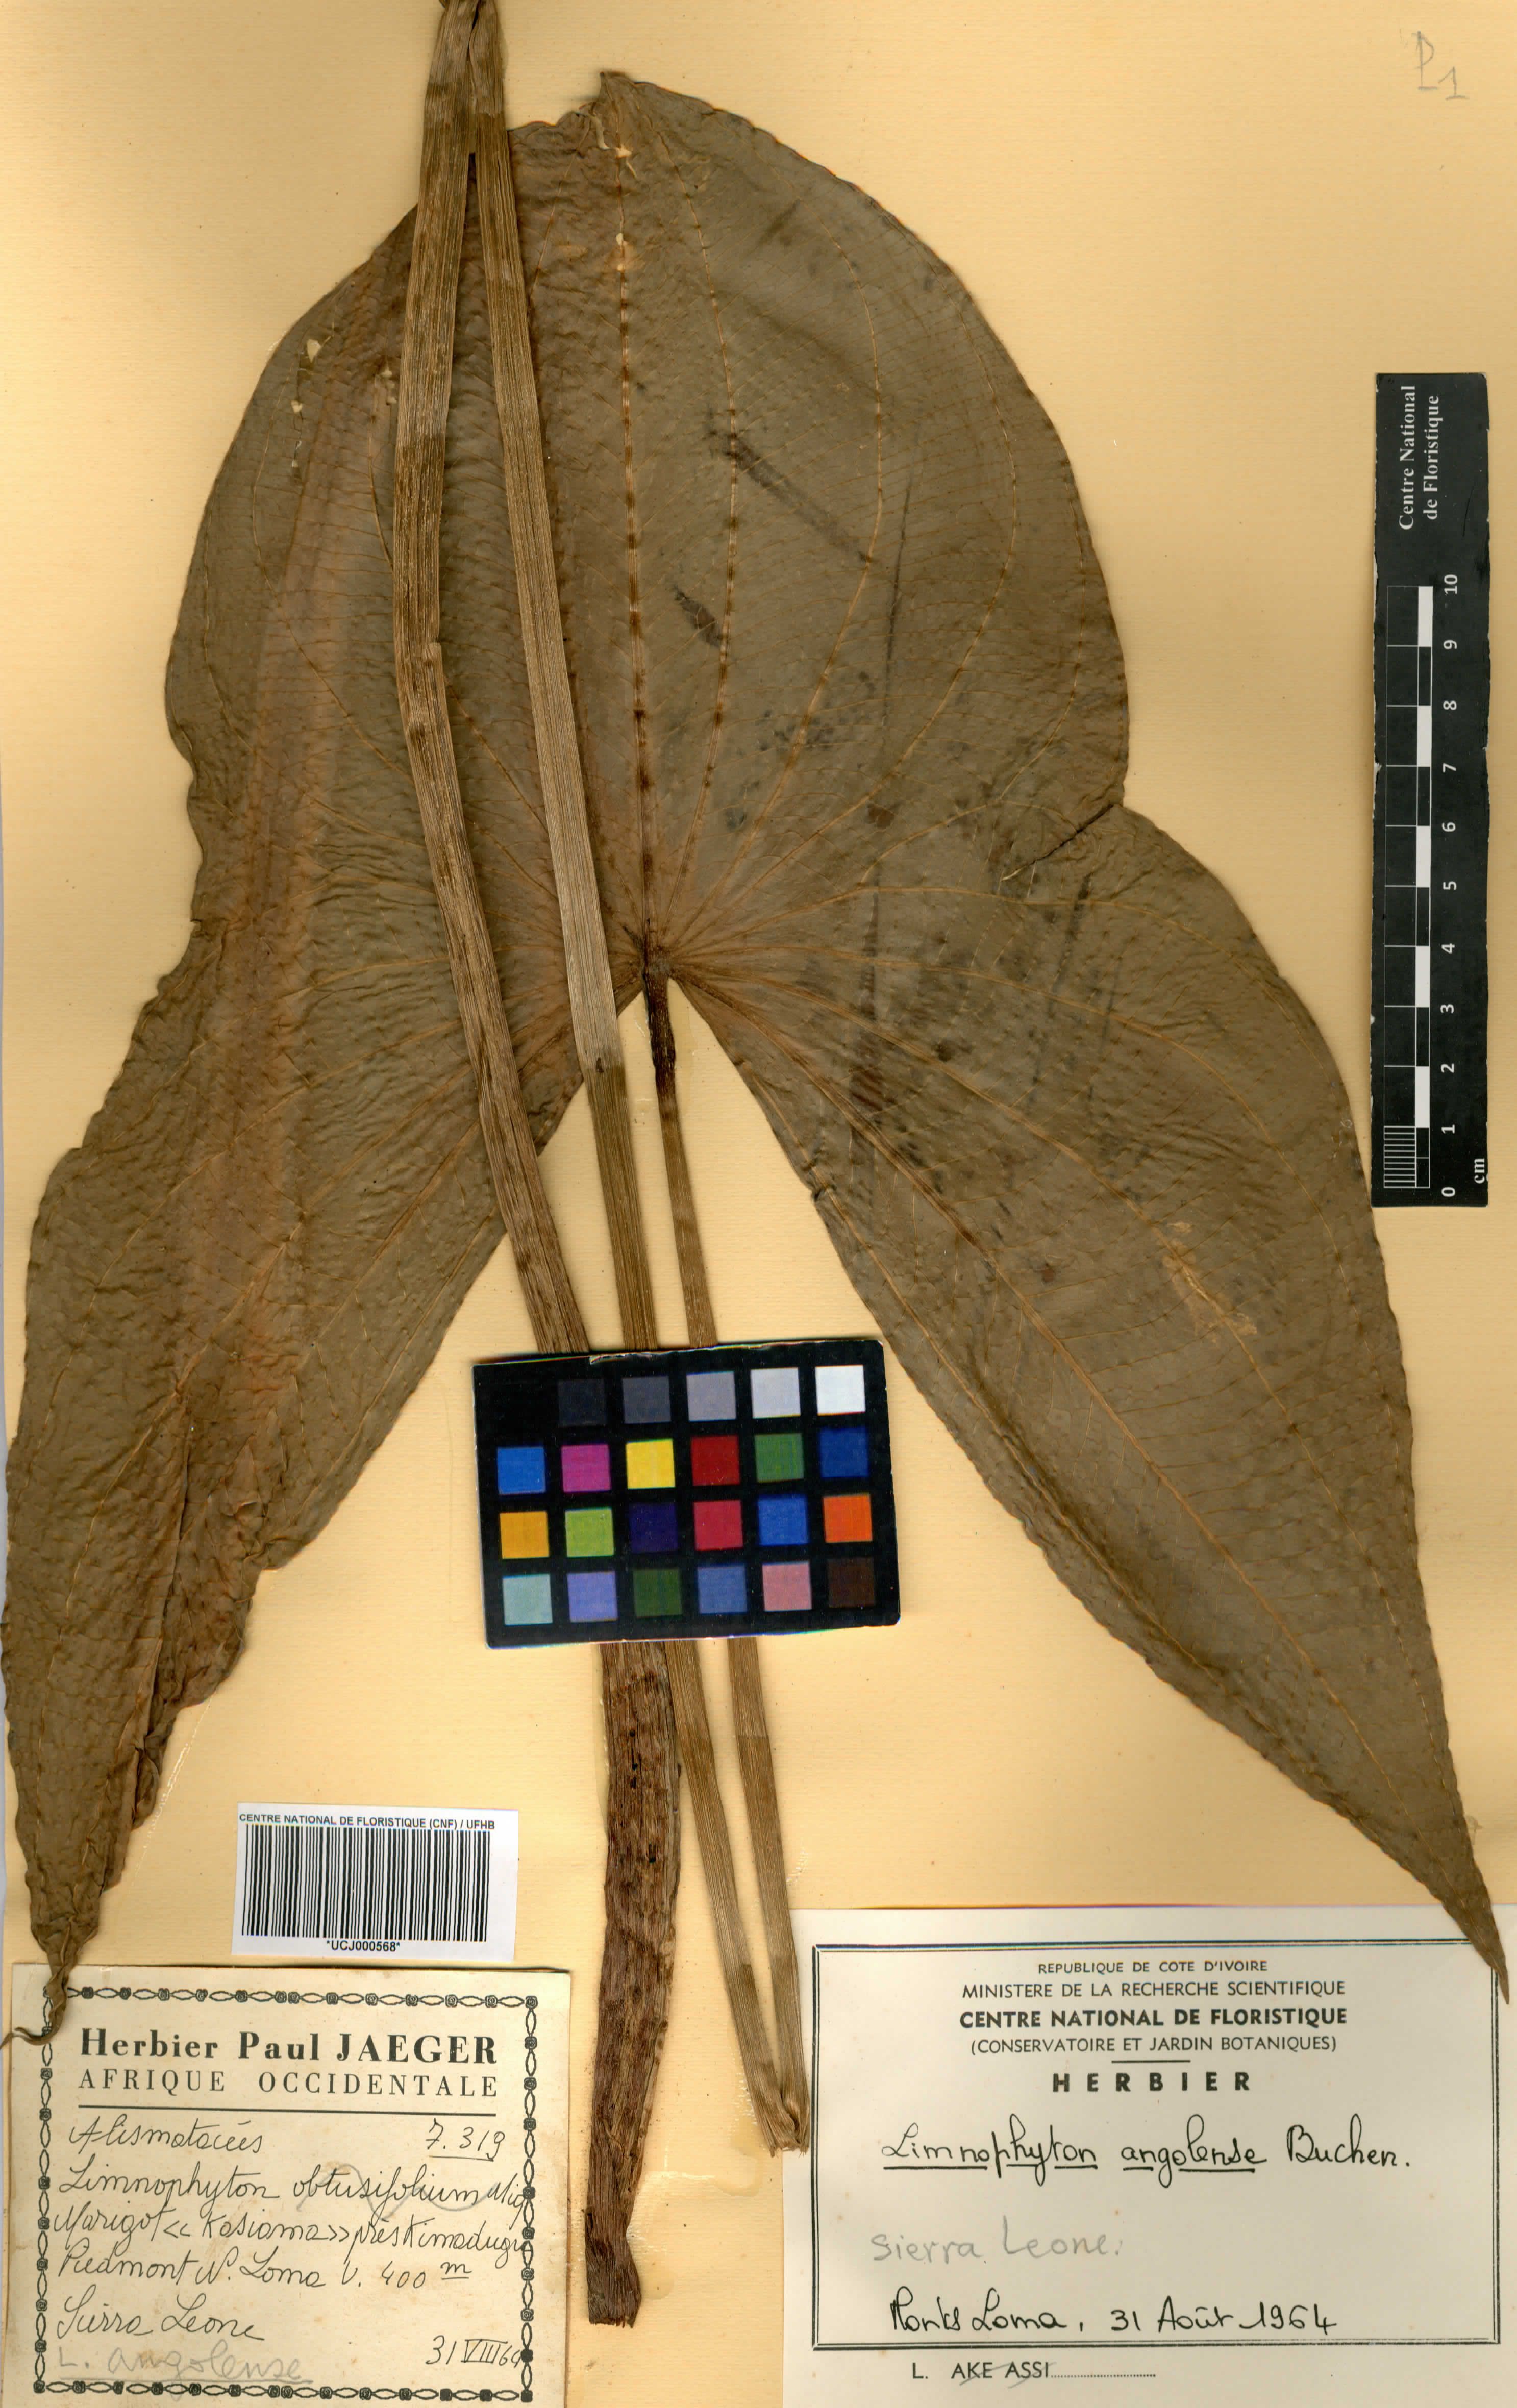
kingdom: Plantae
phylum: Tracheophyta
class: Liliopsida
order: Alismatales
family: Alismataceae
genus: Limnophyton
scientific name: Limnophyton angolense
